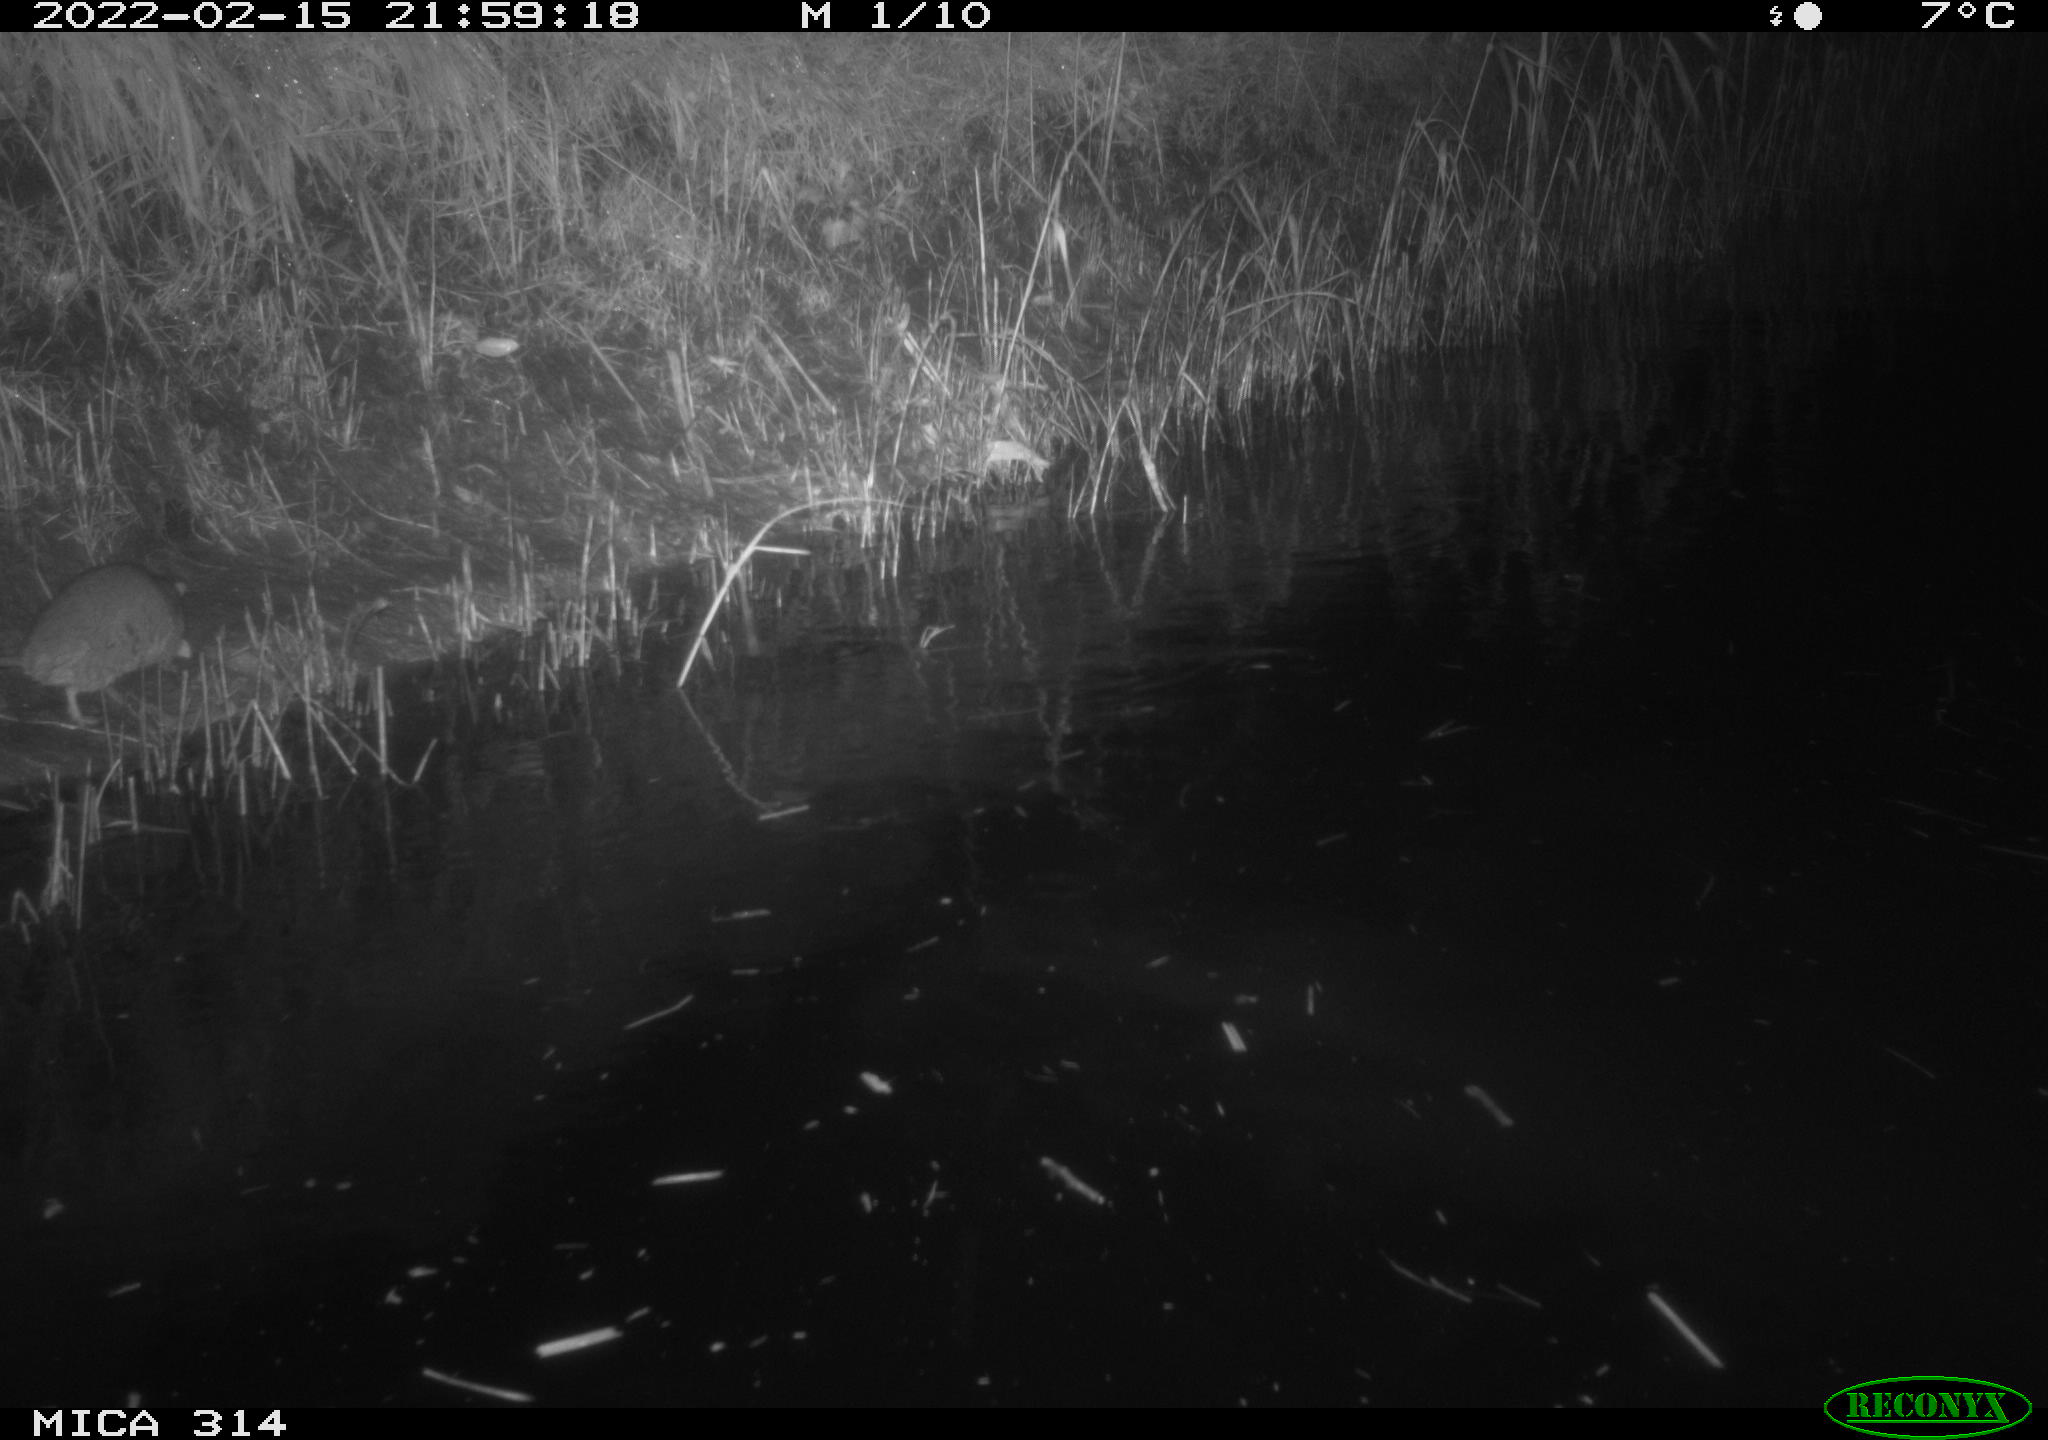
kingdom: Animalia
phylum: Chordata
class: Mammalia
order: Rodentia
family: Muridae
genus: Rattus
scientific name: Rattus norvegicus
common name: Brown rat
